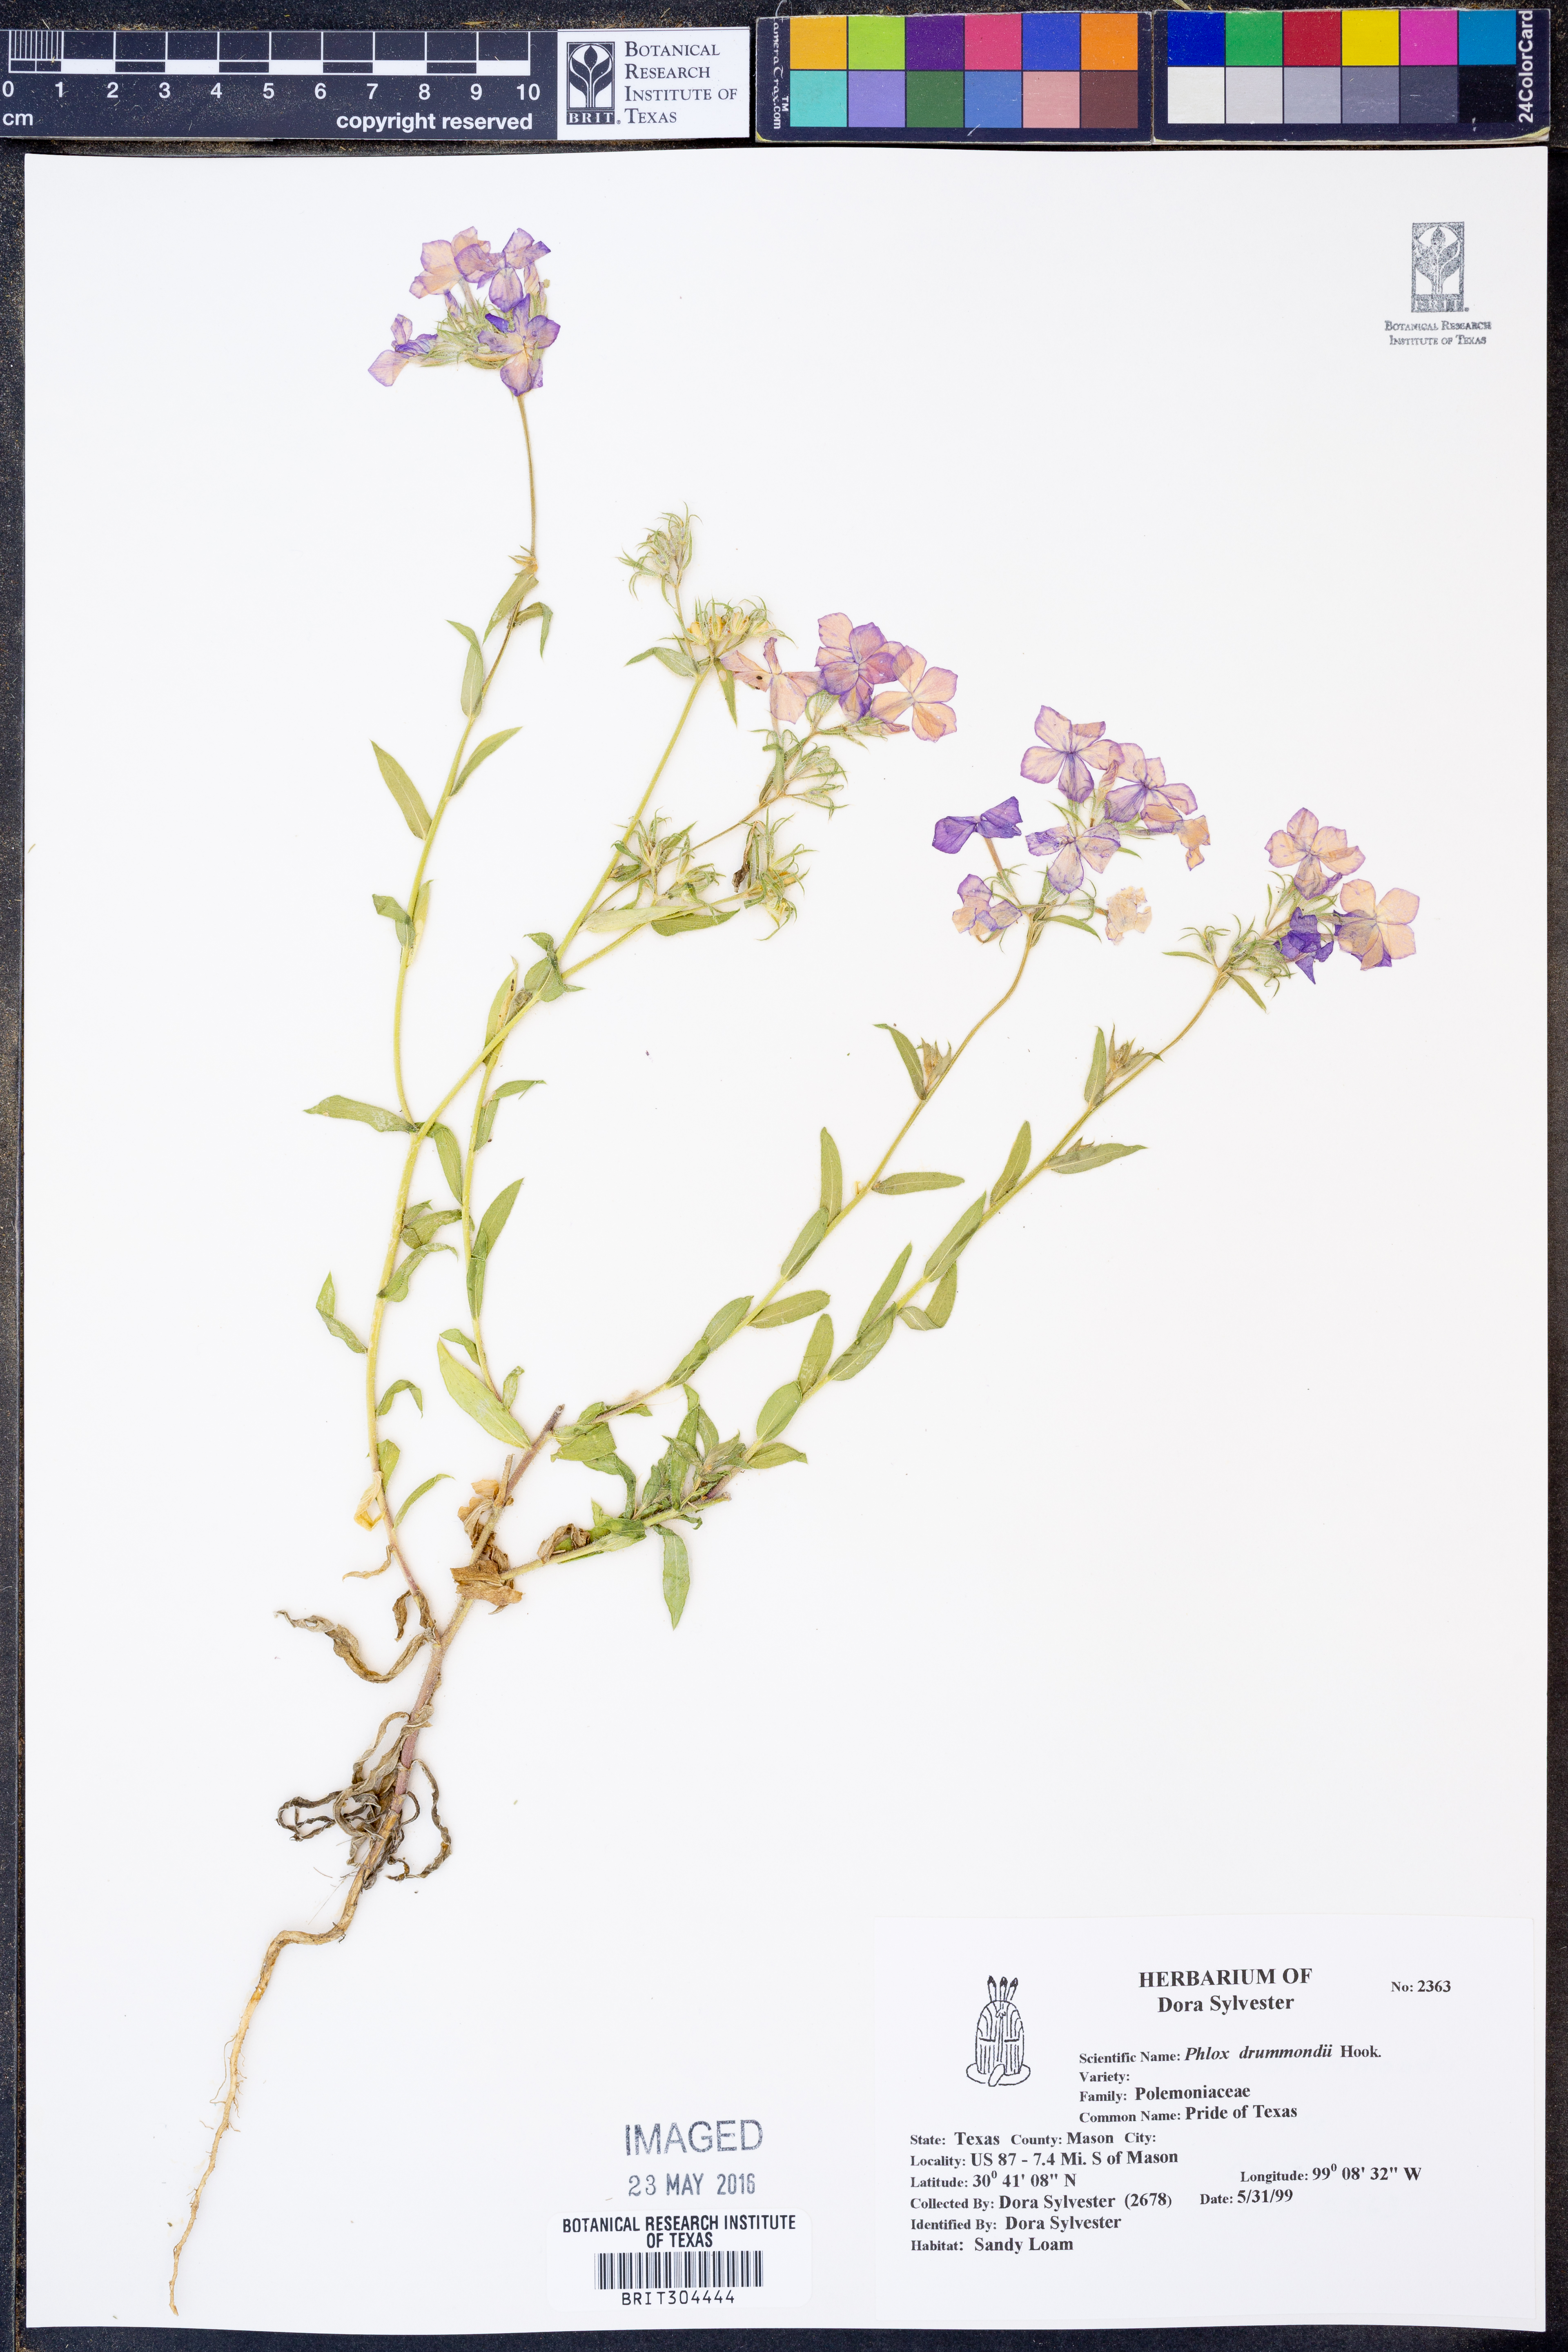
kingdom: Plantae
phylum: Tracheophyta
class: Magnoliopsida
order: Ericales
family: Polemoniaceae
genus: Phlox
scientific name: Phlox drummondii
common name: Drummond's phlox
